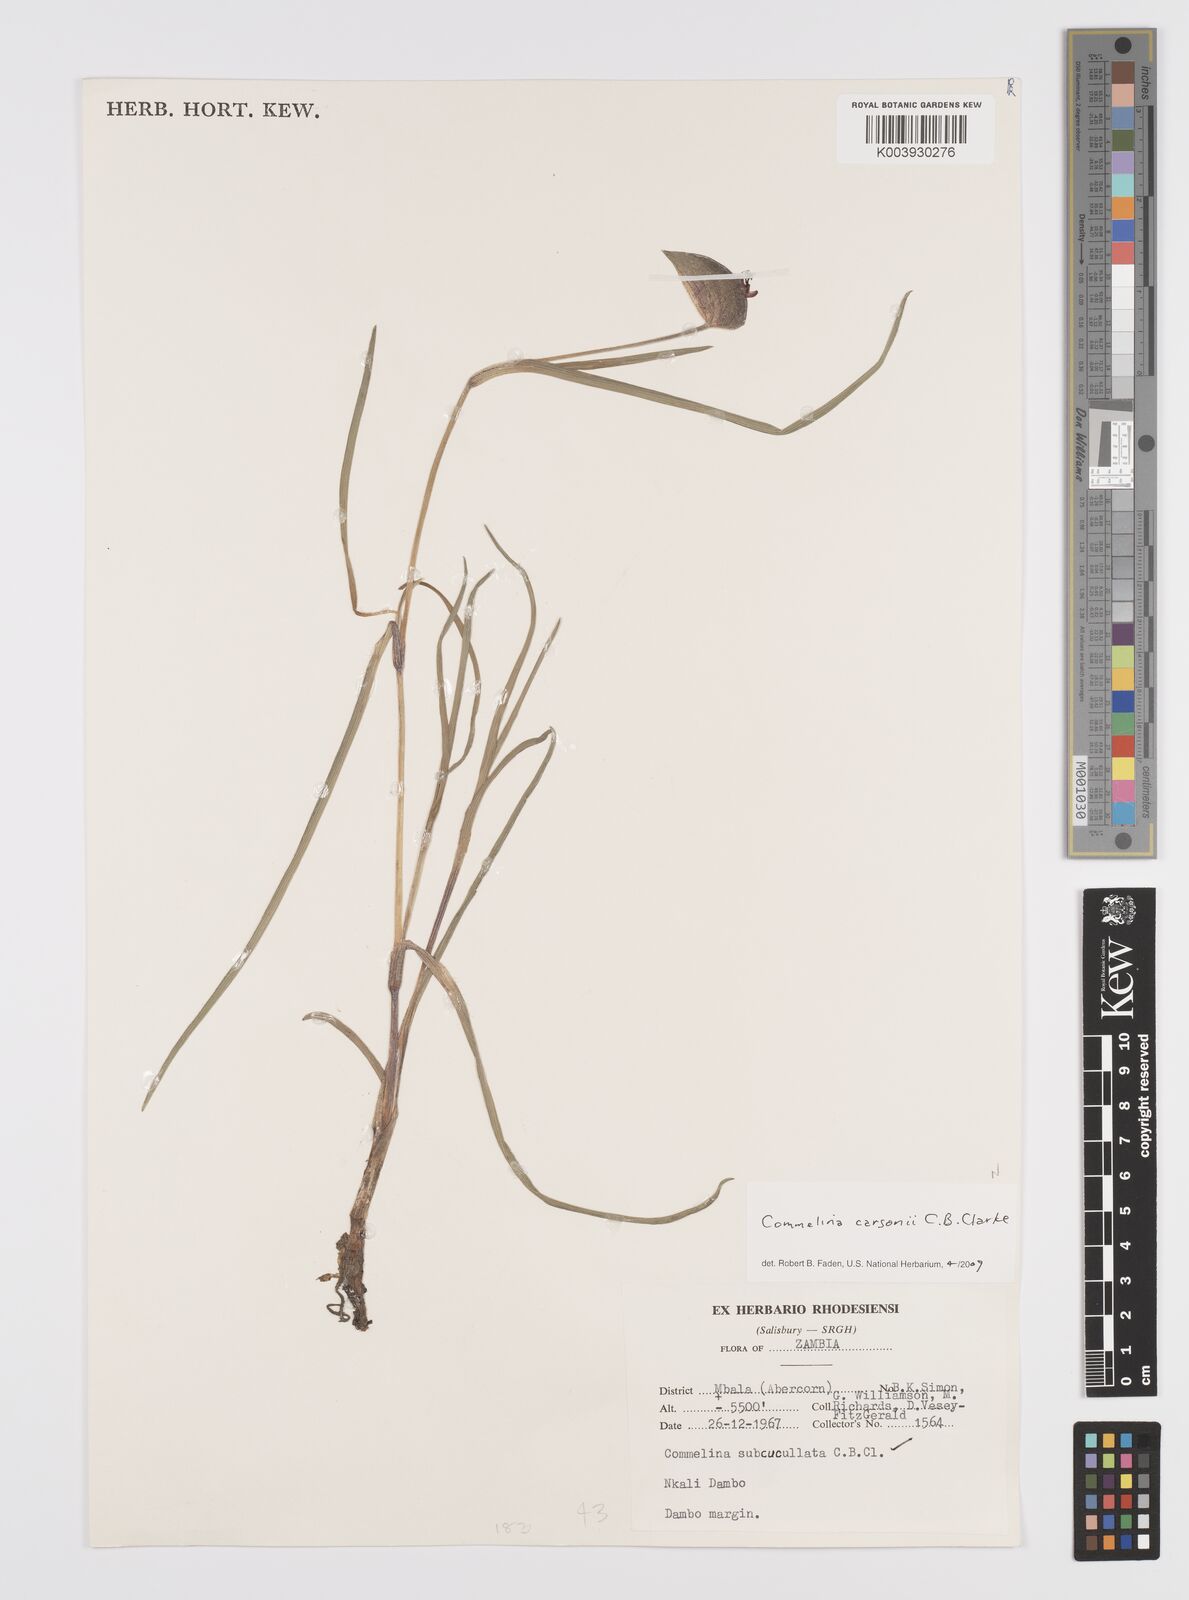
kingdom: Plantae
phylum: Tracheophyta
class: Liliopsida
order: Commelinales
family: Commelinaceae
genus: Commelina
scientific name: Commelina schweinfurthii
